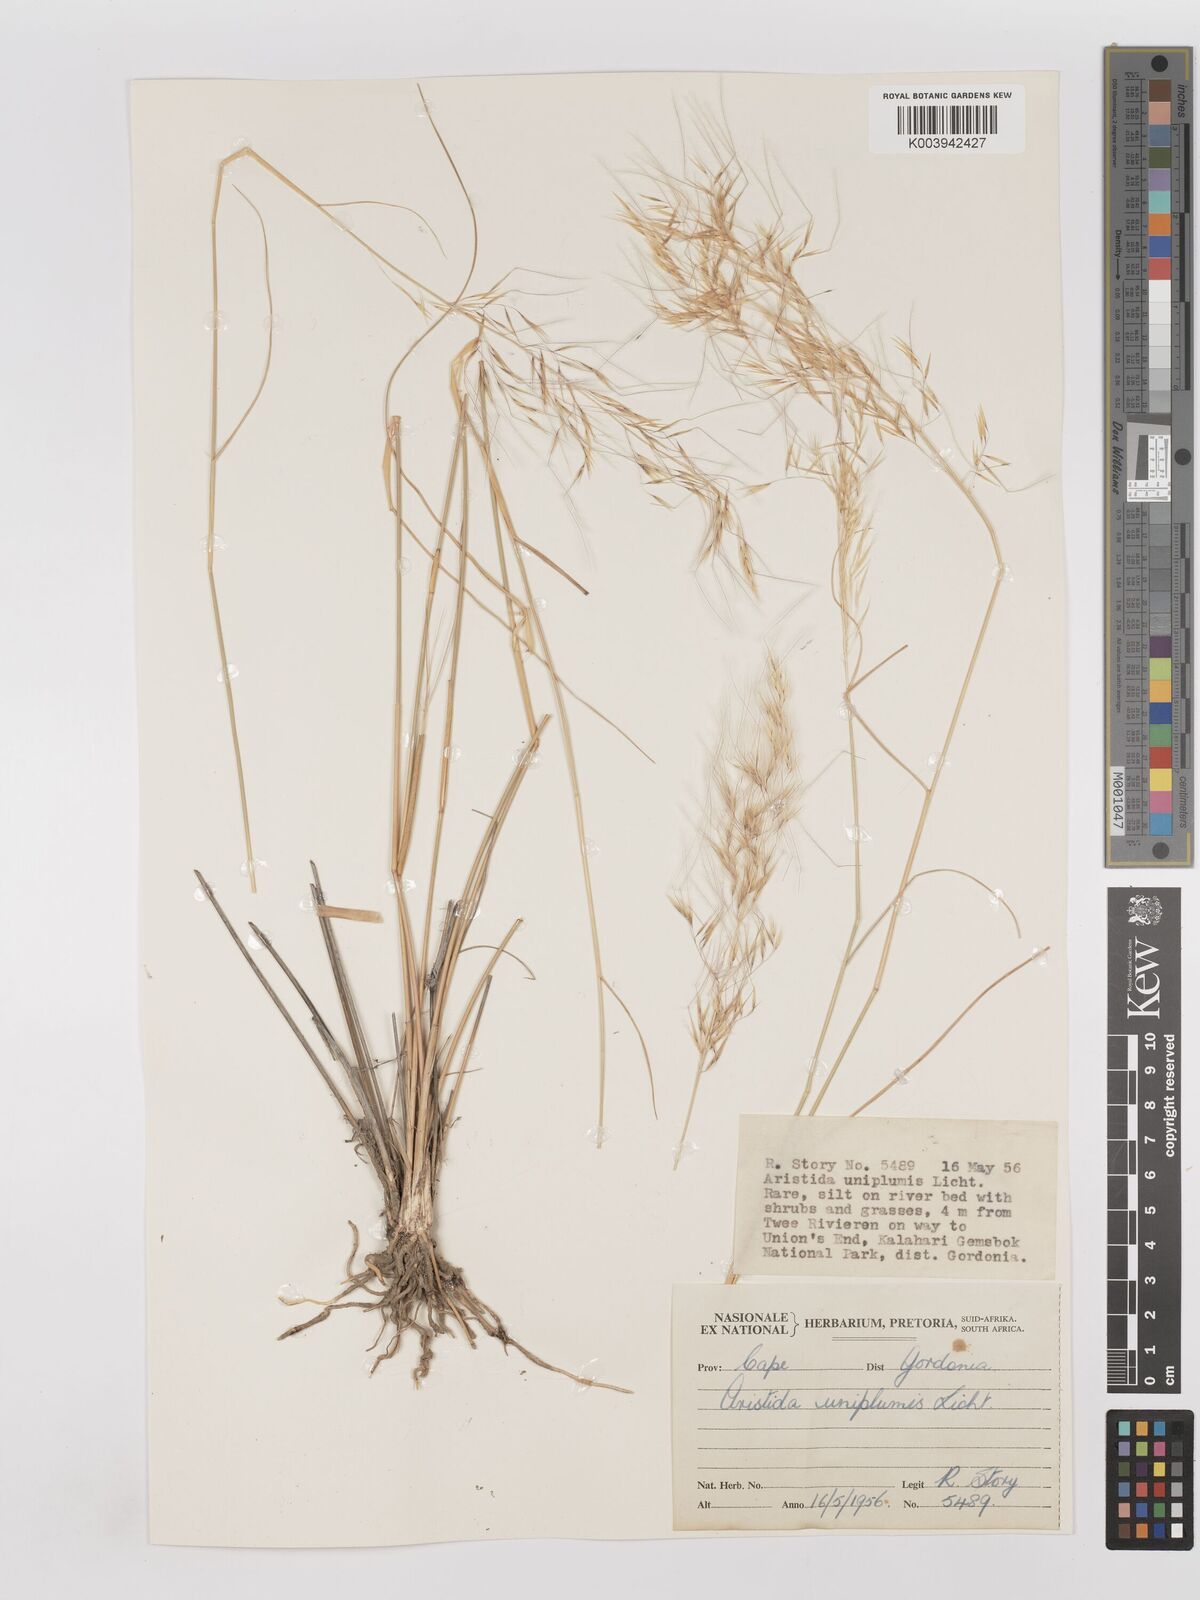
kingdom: Plantae
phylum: Tracheophyta
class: Liliopsida
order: Poales
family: Poaceae
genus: Stipagrostis
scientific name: Stipagrostis uniplumis
